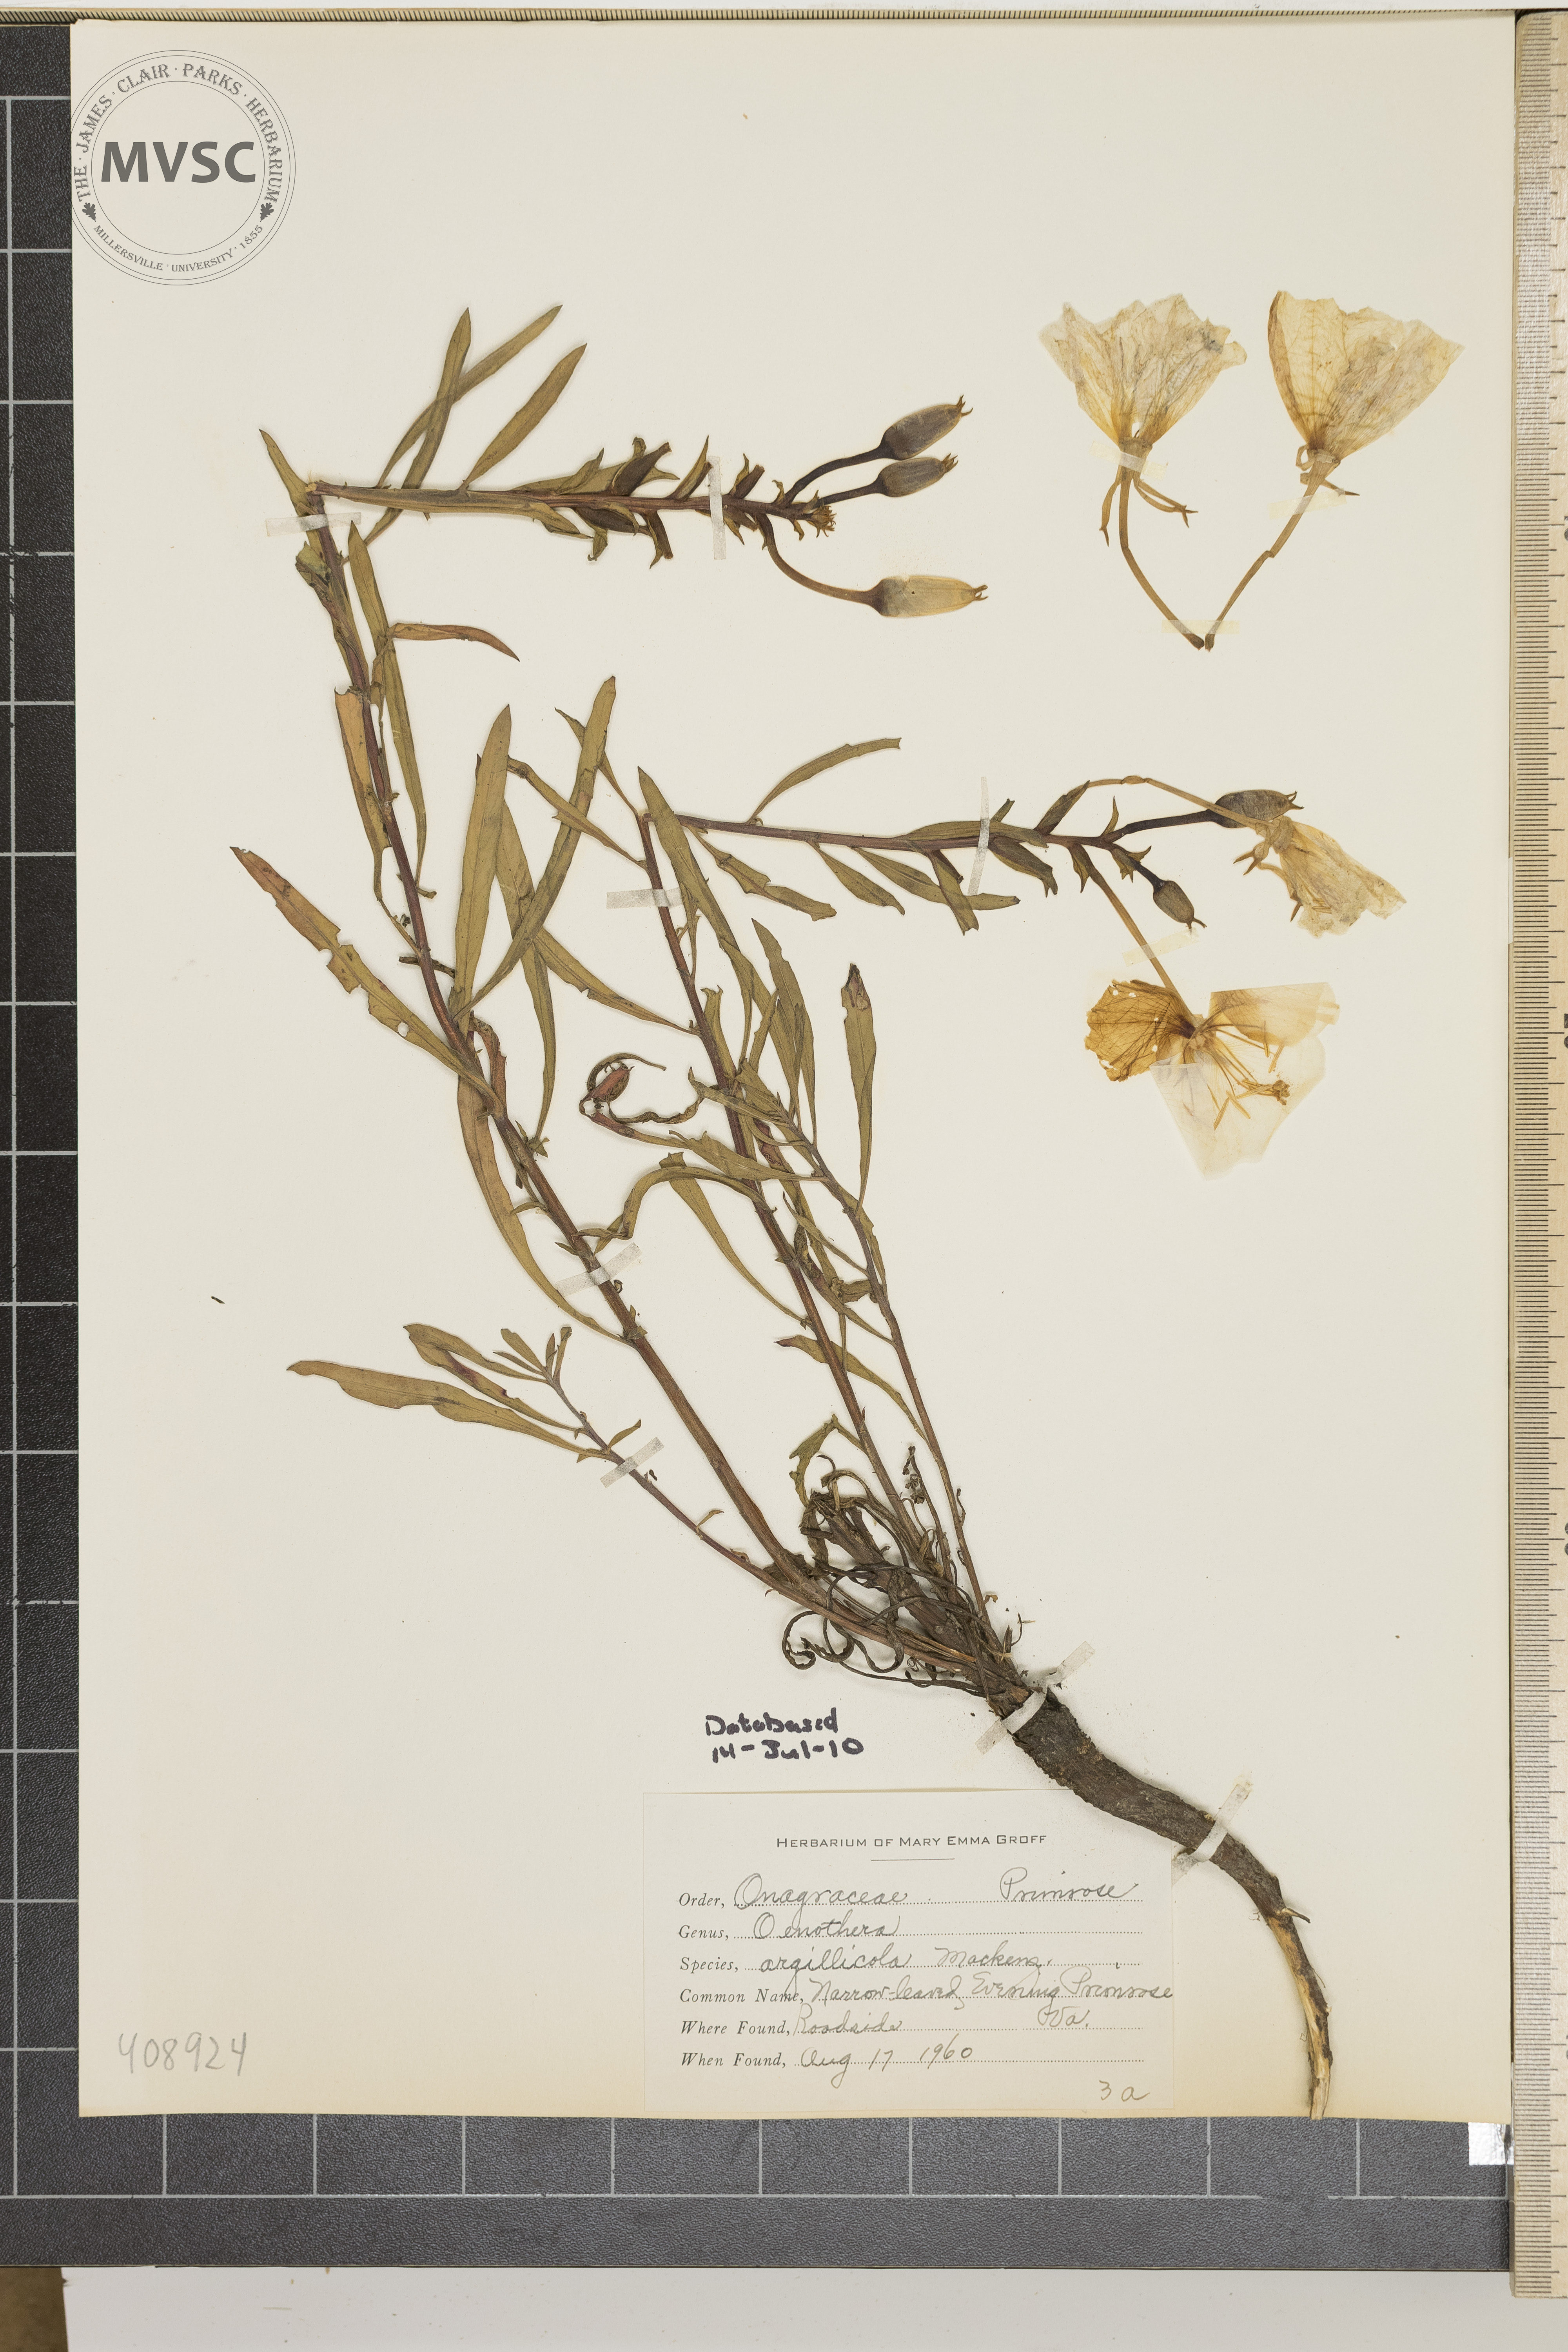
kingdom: Plantae
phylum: Tracheophyta
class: Magnoliopsida
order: Myrtales
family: Onagraceae
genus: Oenothera
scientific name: Oenothera argillicola
